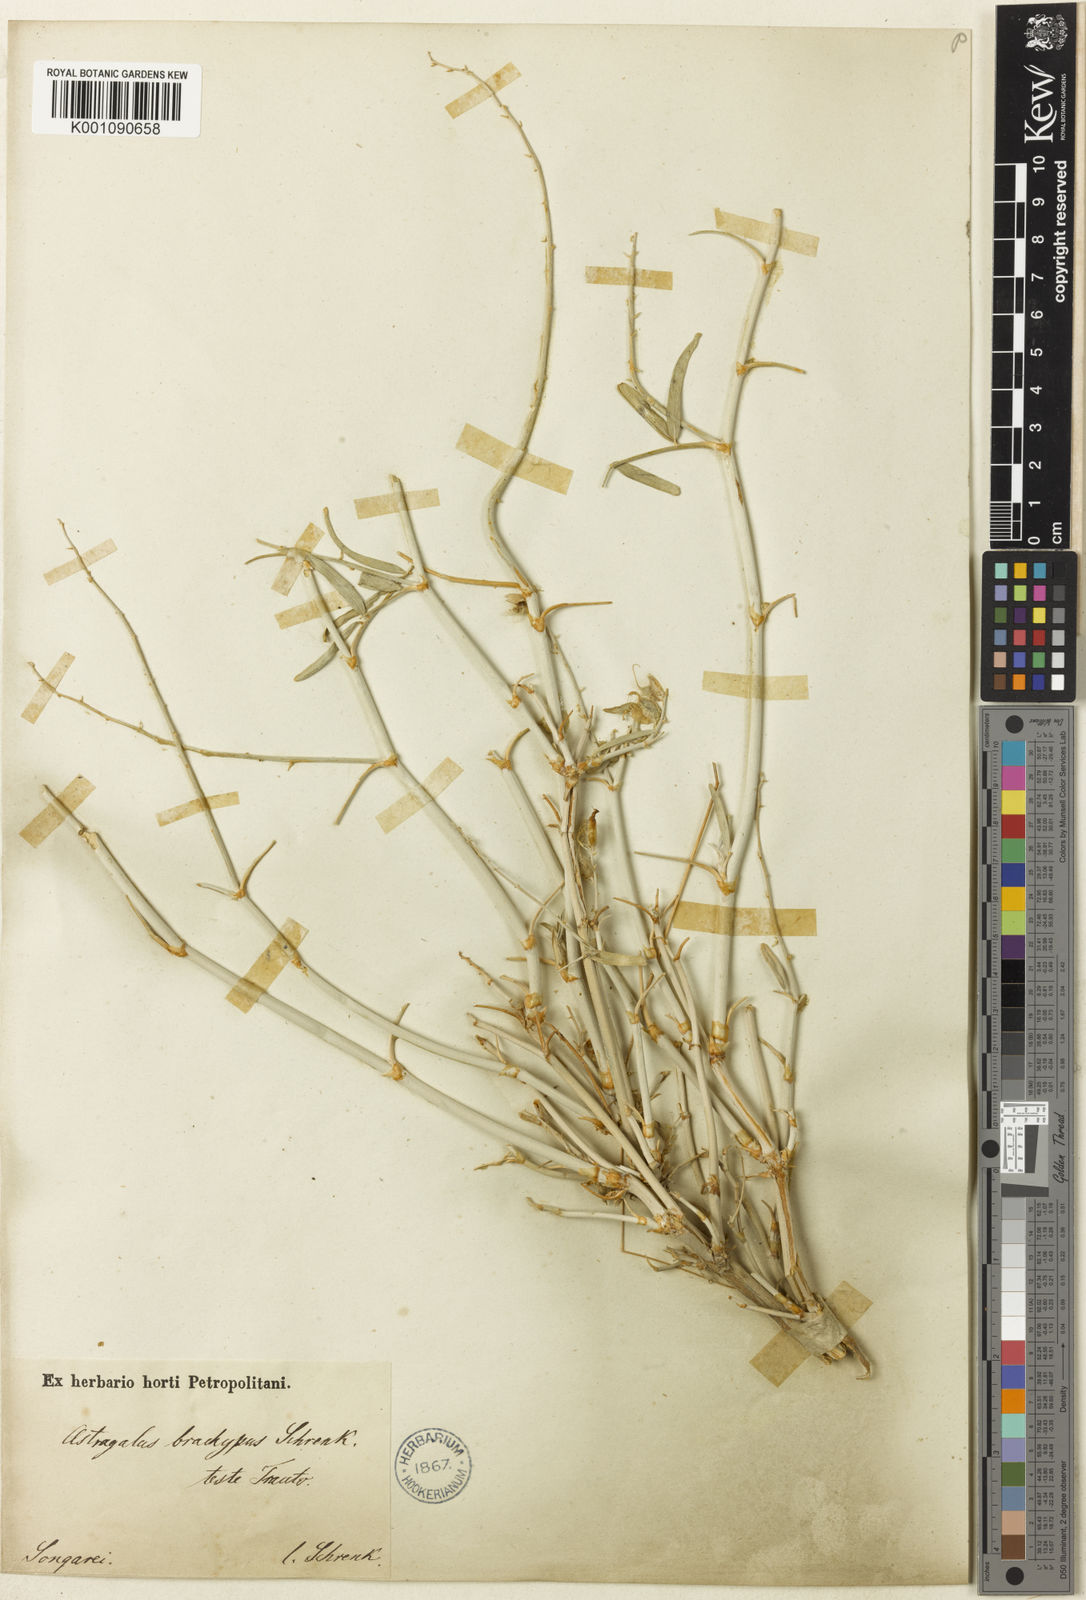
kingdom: Plantae
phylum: Tracheophyta
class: Magnoliopsida
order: Fabales
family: Fabaceae
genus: Astragalus
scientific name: Astragalus
